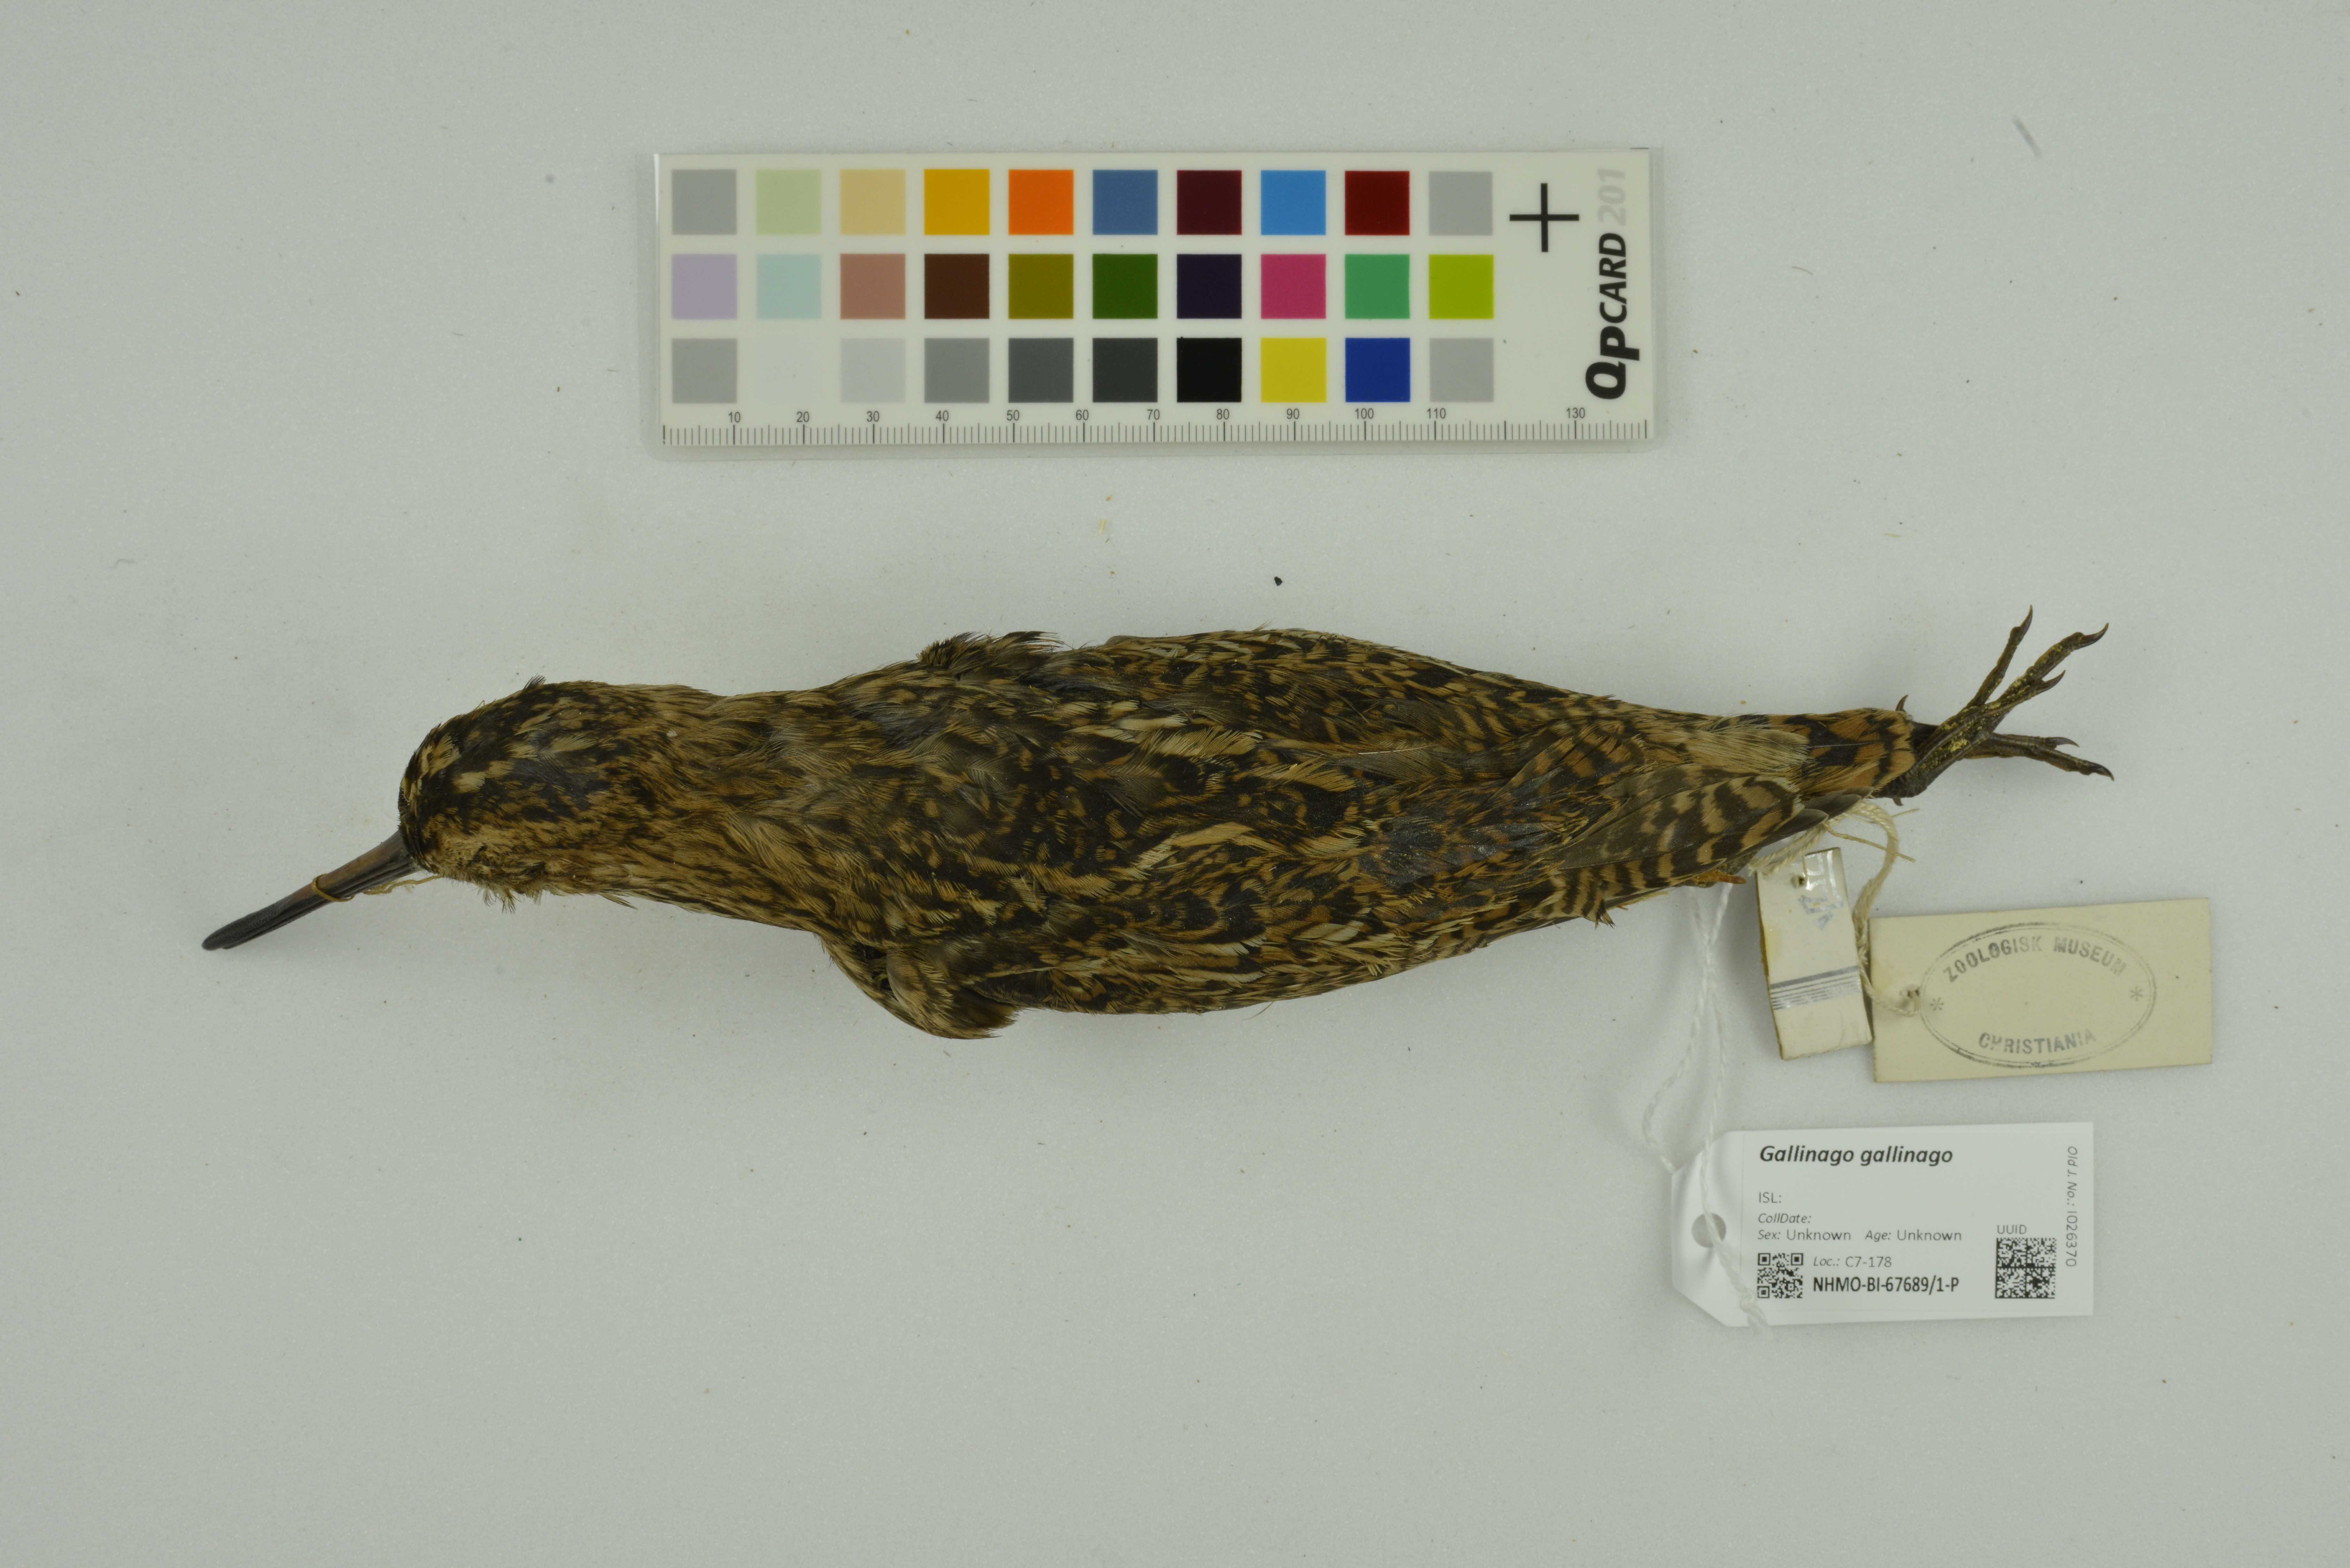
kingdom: Animalia
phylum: Chordata
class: Aves
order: Charadriiformes
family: Scolopacidae
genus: Gallinago
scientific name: Gallinago gallinago
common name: Common snipe
